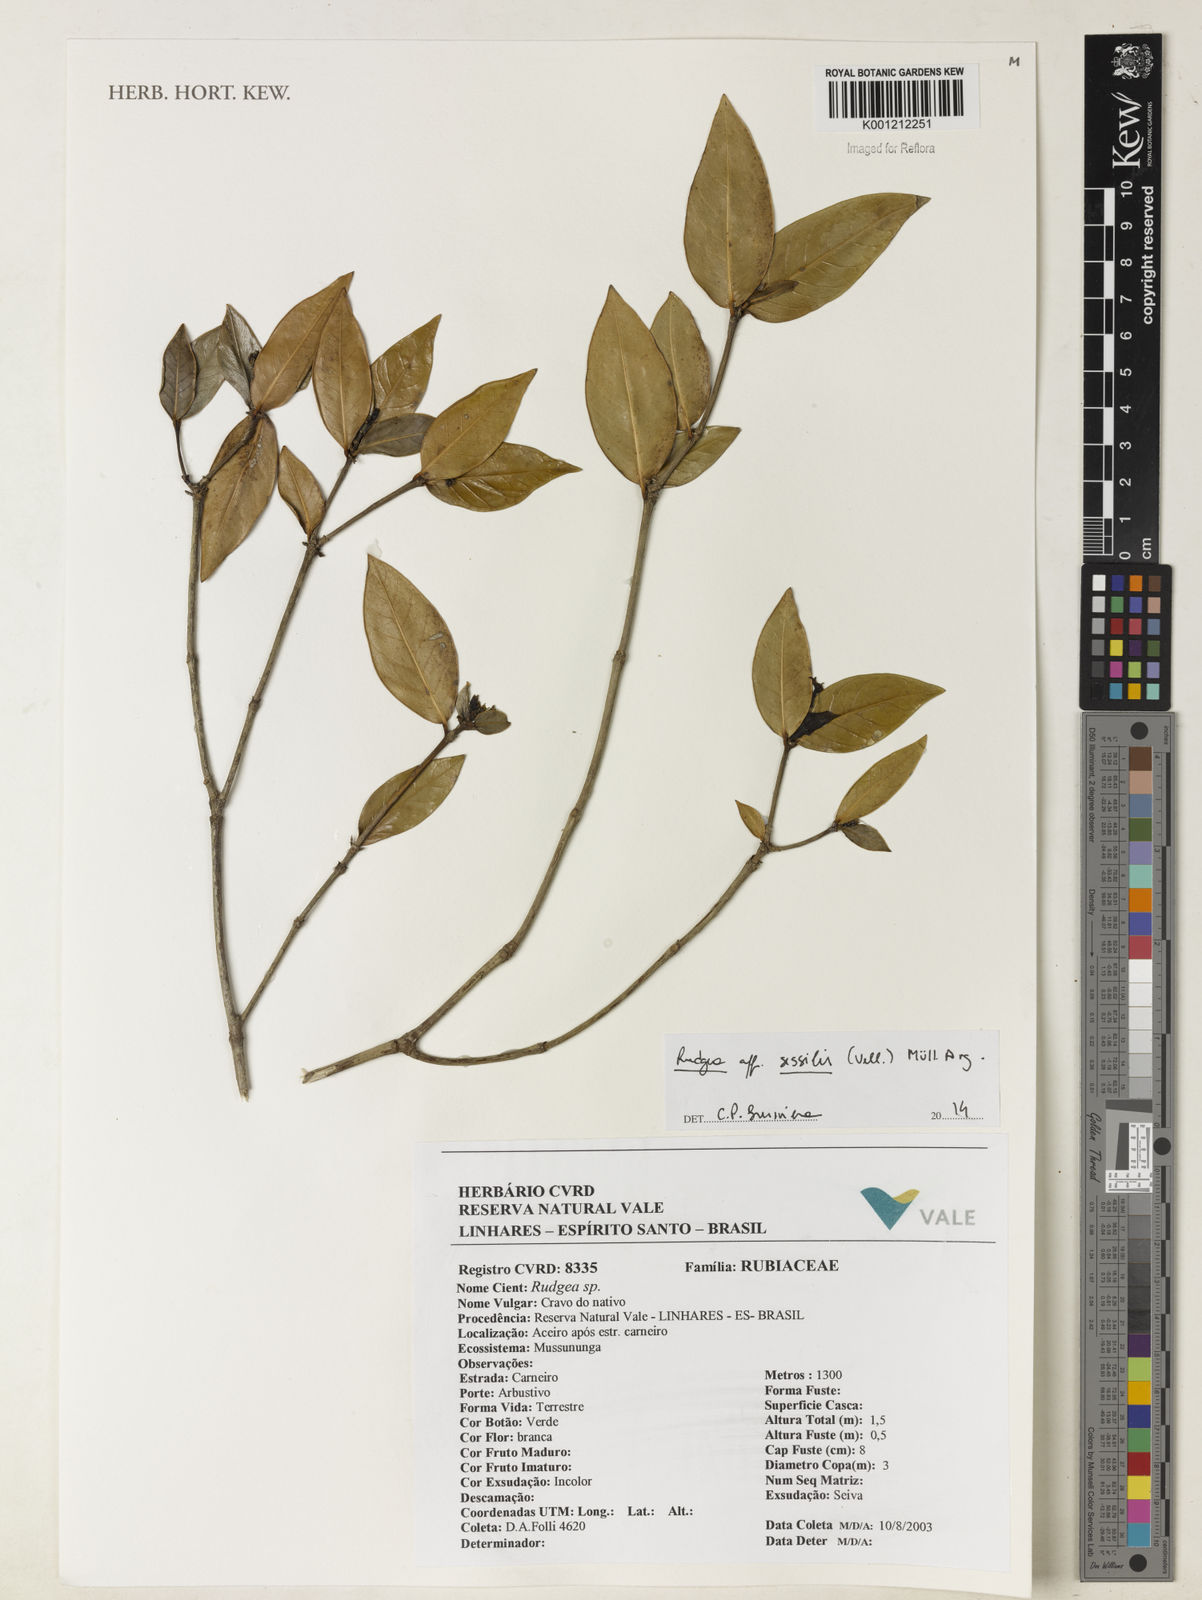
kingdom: Plantae
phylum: Tracheophyta
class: Magnoliopsida
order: Gentianales
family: Rubiaceae
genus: Rudgea
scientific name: Rudgea
